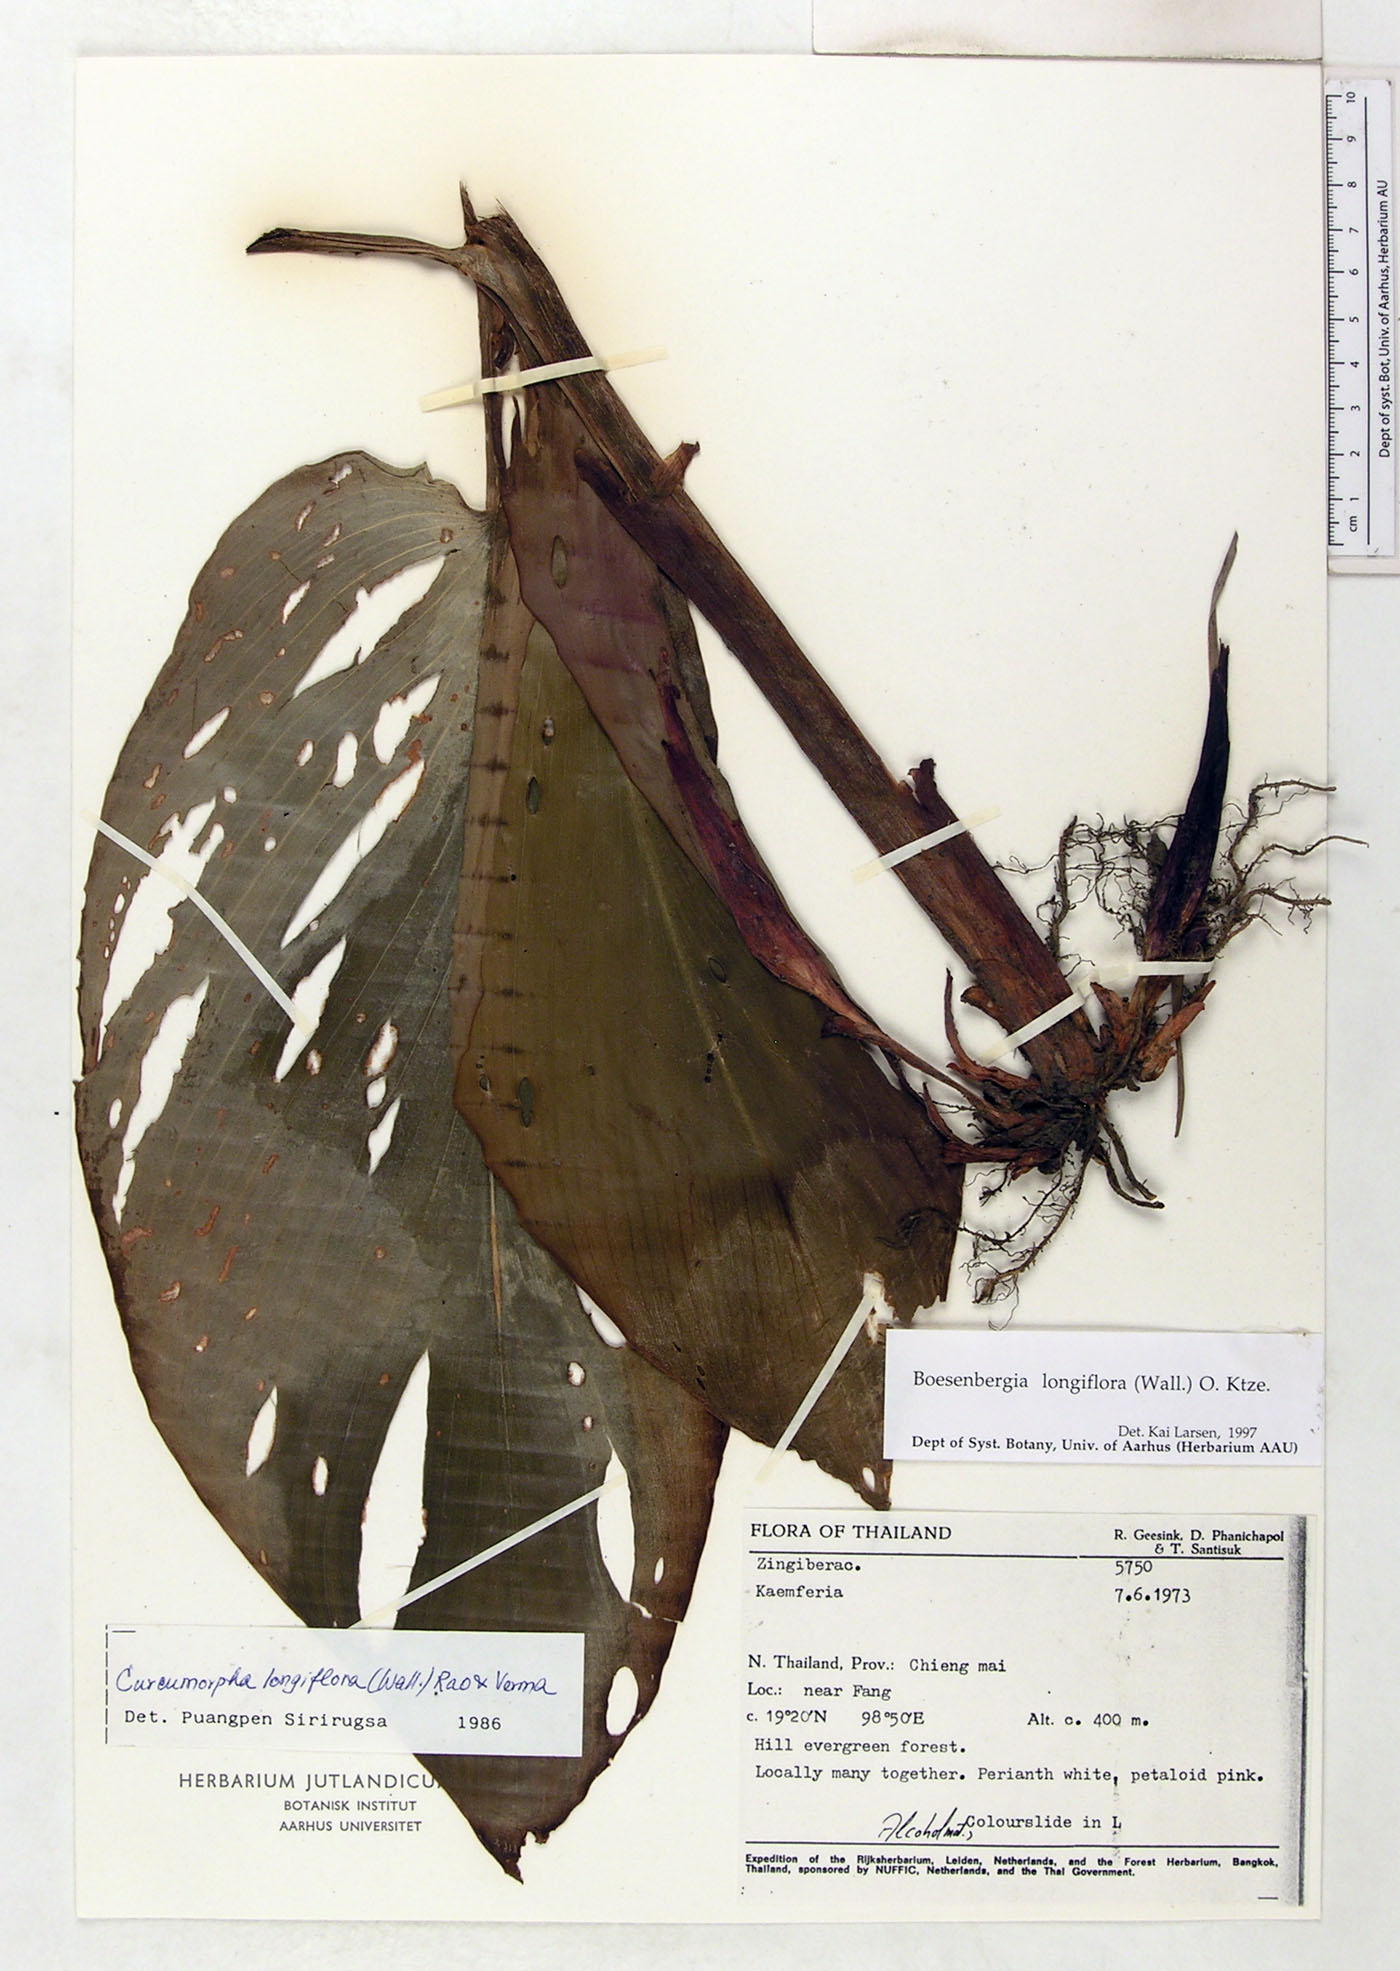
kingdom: Plantae
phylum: Tracheophyta
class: Liliopsida
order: Zingiberales
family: Zingiberaceae
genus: Boesenbergia
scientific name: Boesenbergia longiflora
